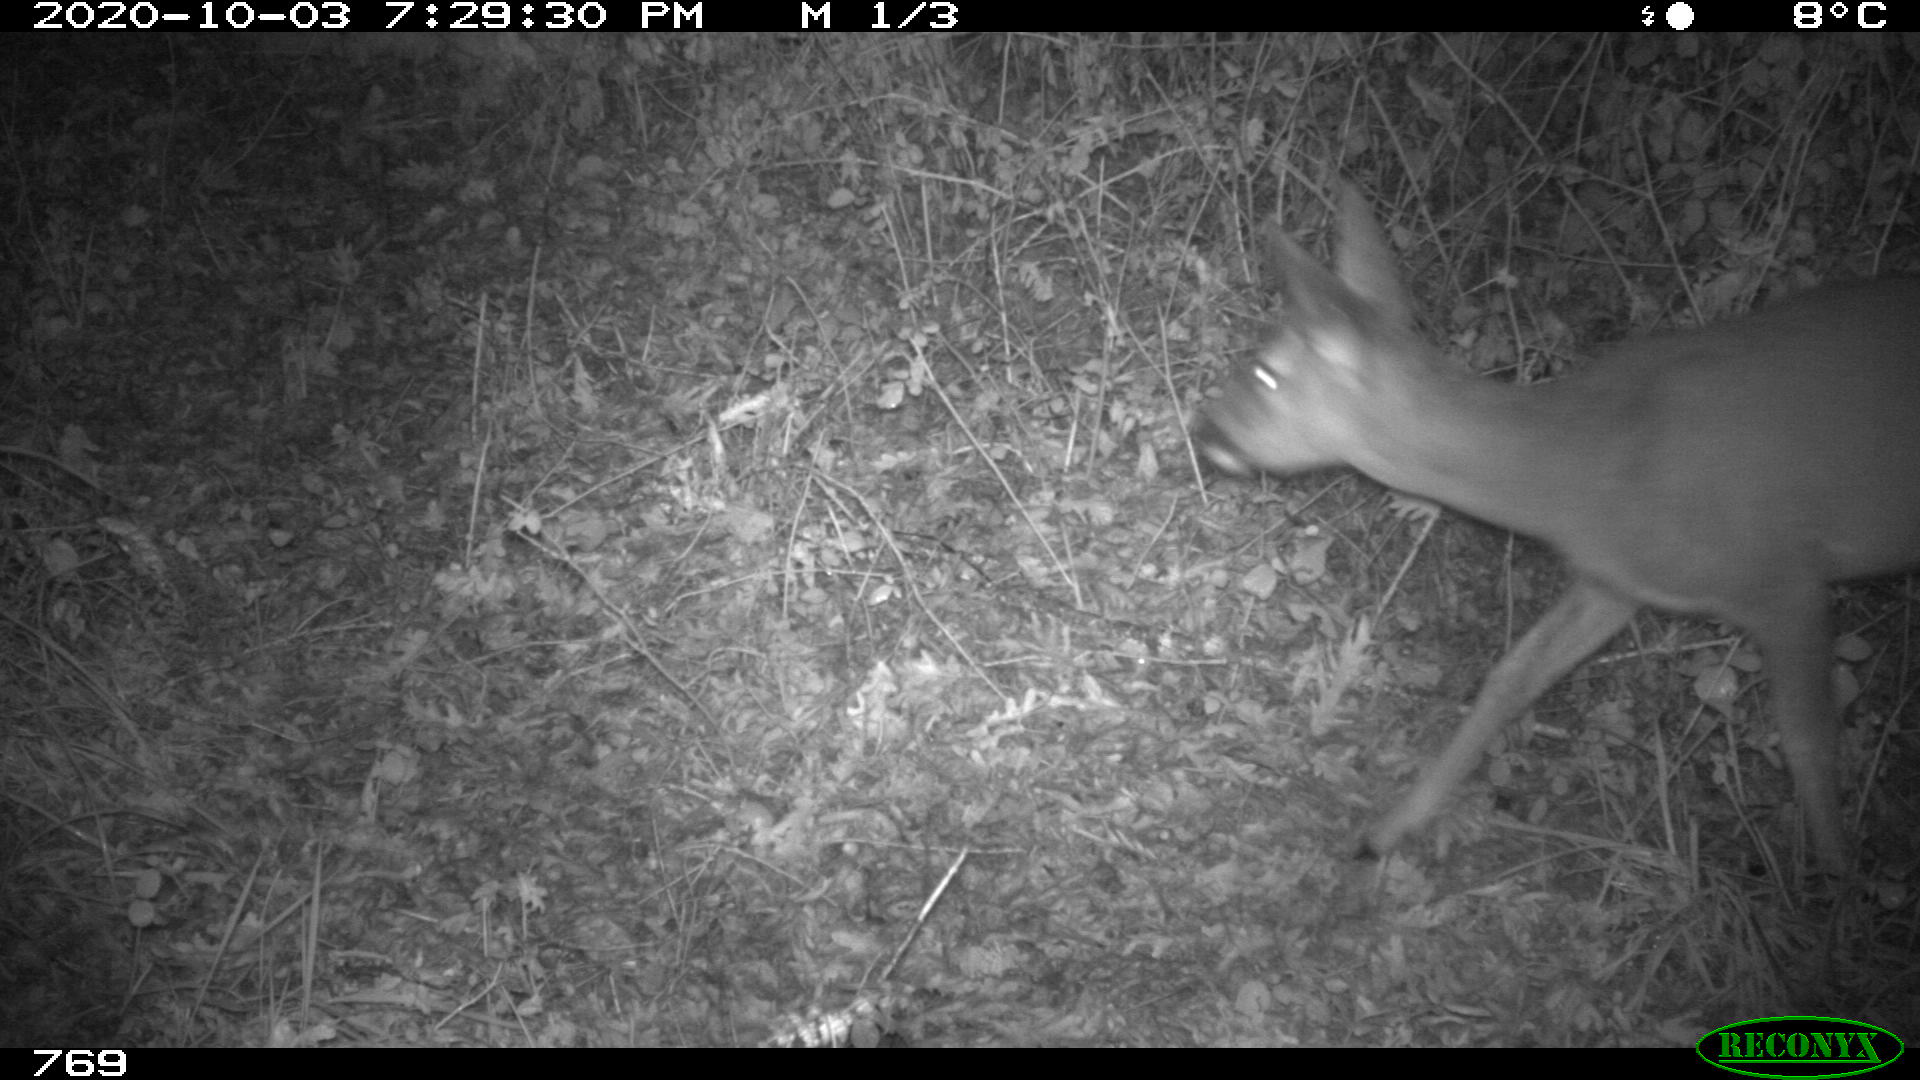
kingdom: Animalia
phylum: Chordata
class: Mammalia
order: Artiodactyla
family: Cervidae
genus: Capreolus
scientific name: Capreolus capreolus
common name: Western roe deer
